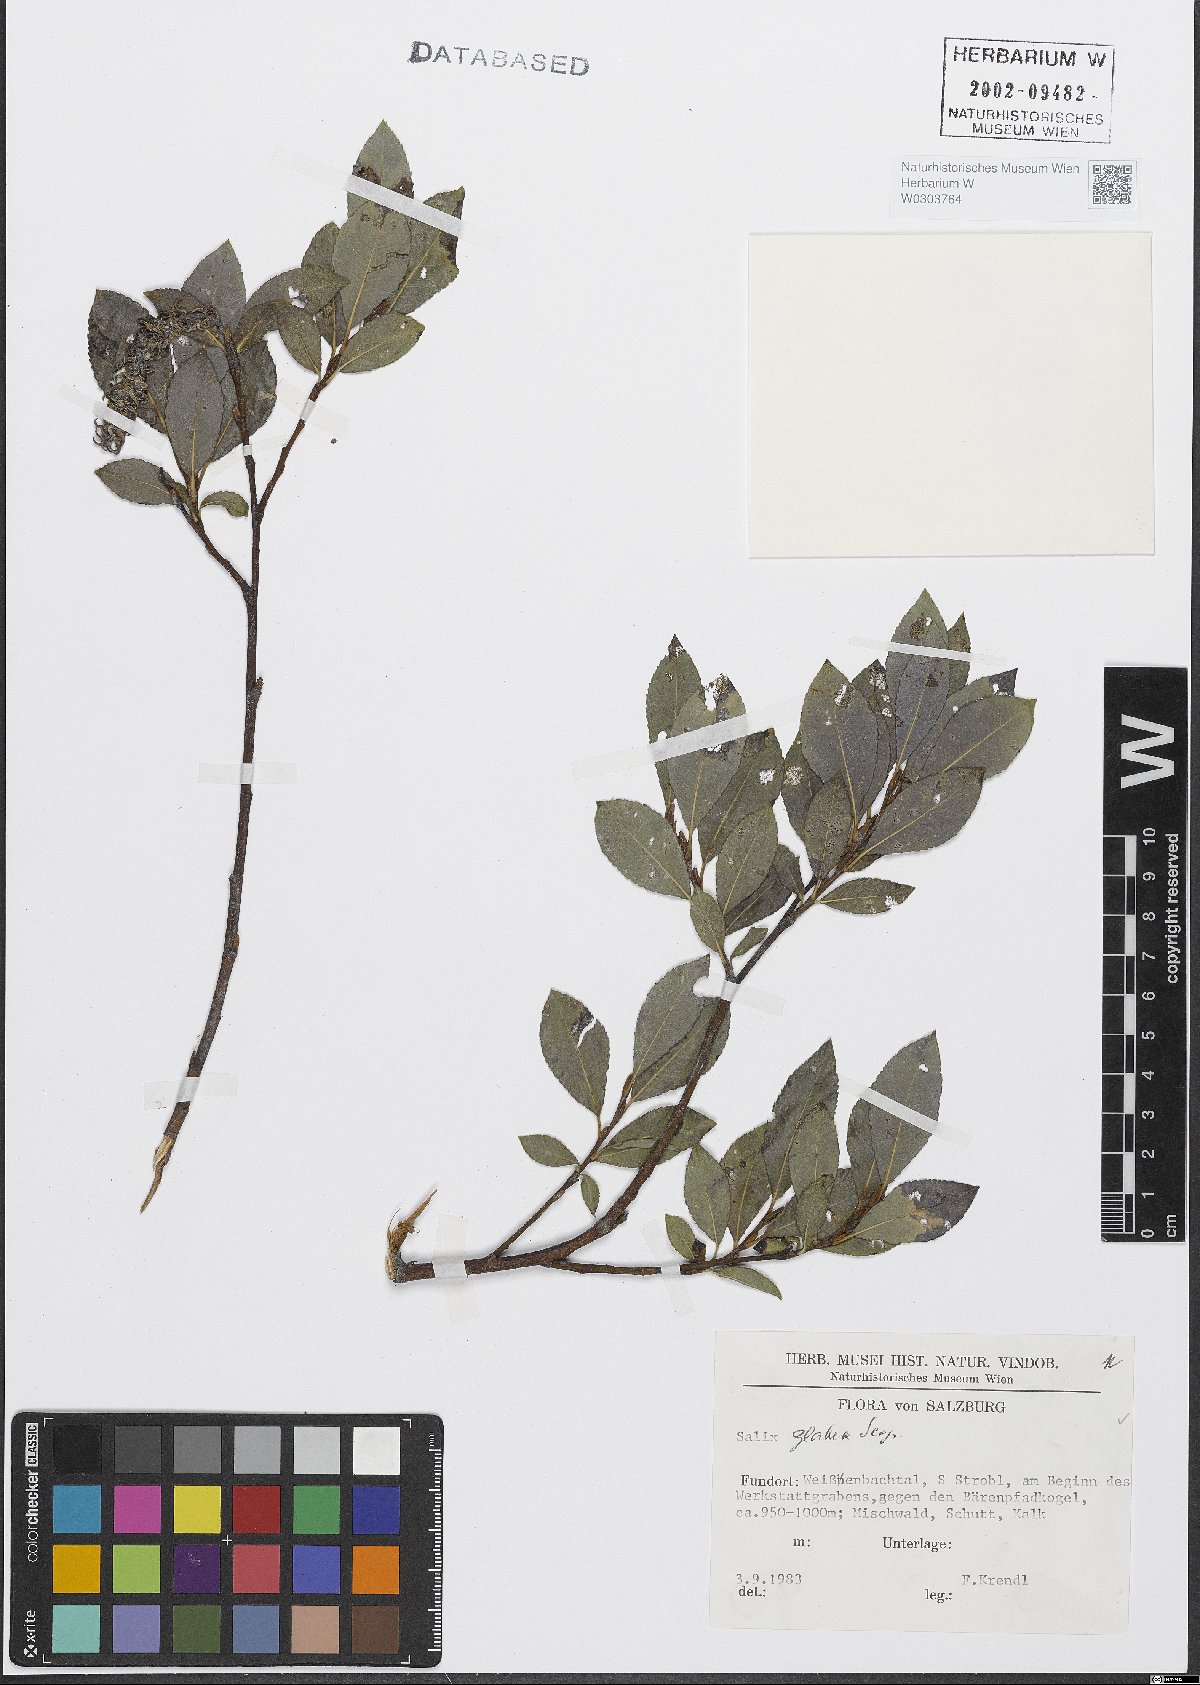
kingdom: Plantae
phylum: Tracheophyta
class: Magnoliopsida
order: Malpighiales
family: Salicaceae
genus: Salix
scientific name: Salix glabra
